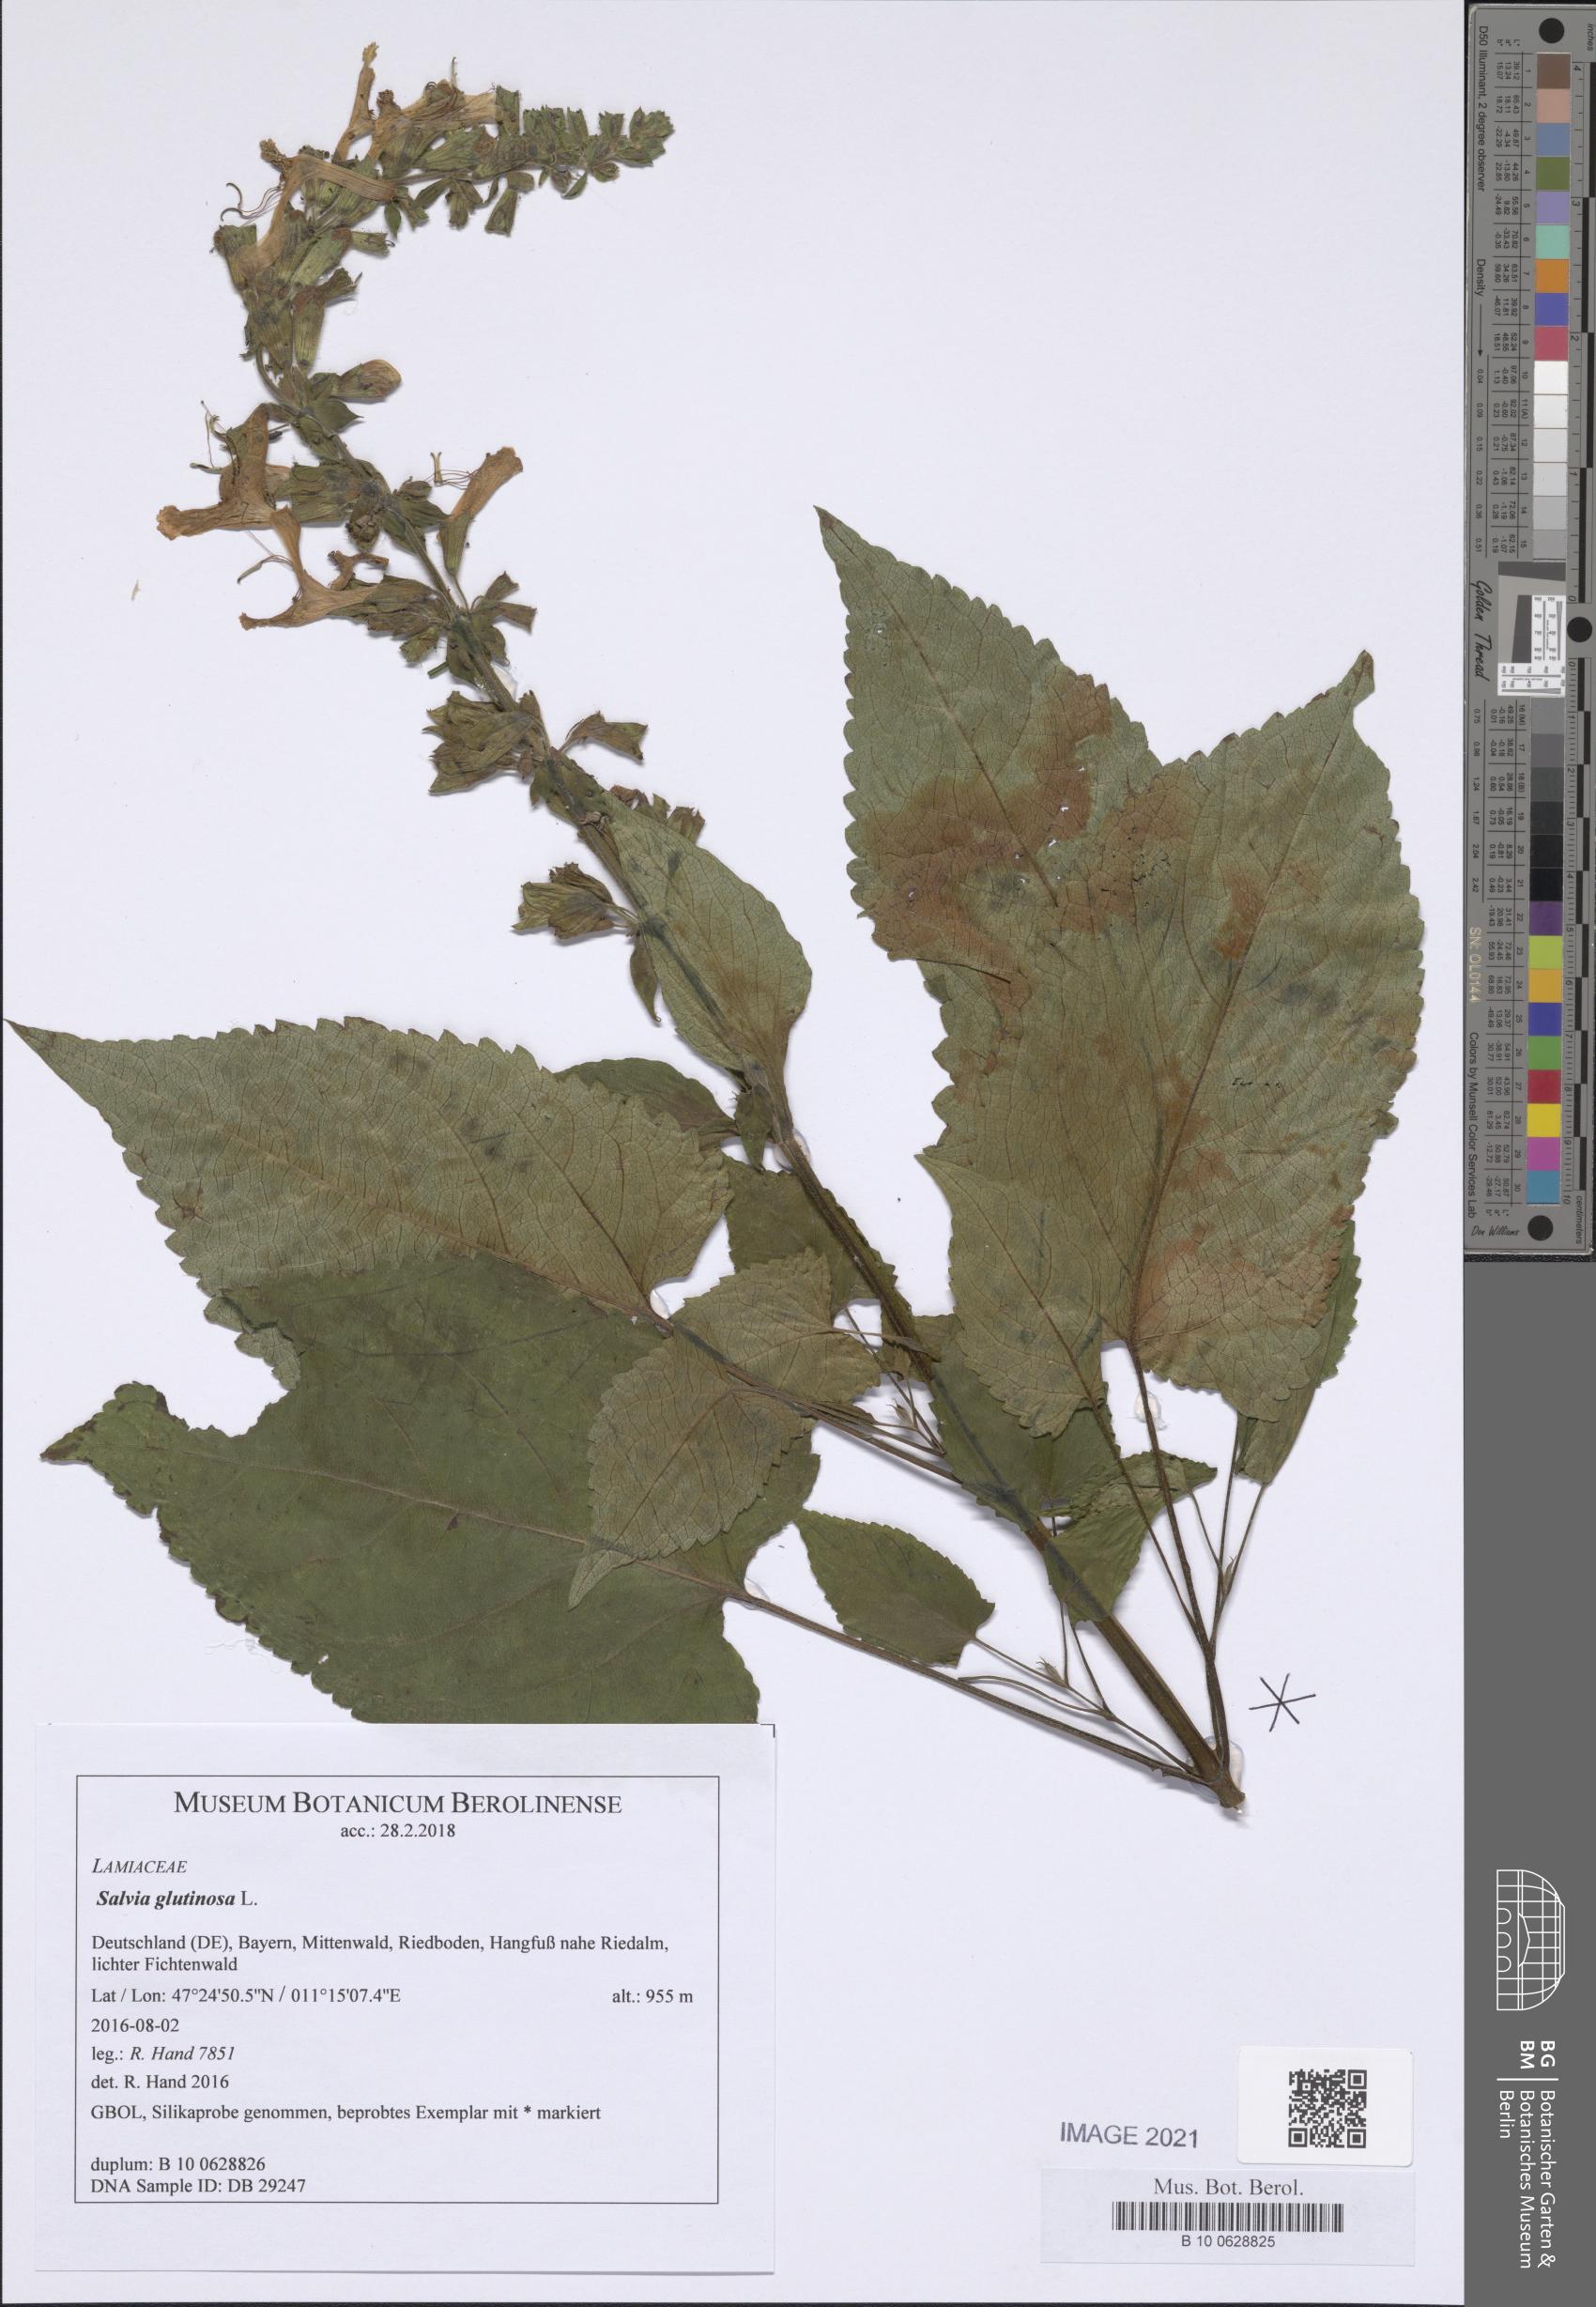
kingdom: Plantae
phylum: Tracheophyta
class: Magnoliopsida
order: Lamiales
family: Lamiaceae
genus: Salvia
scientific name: Salvia glutinosa
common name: Sticky clary
